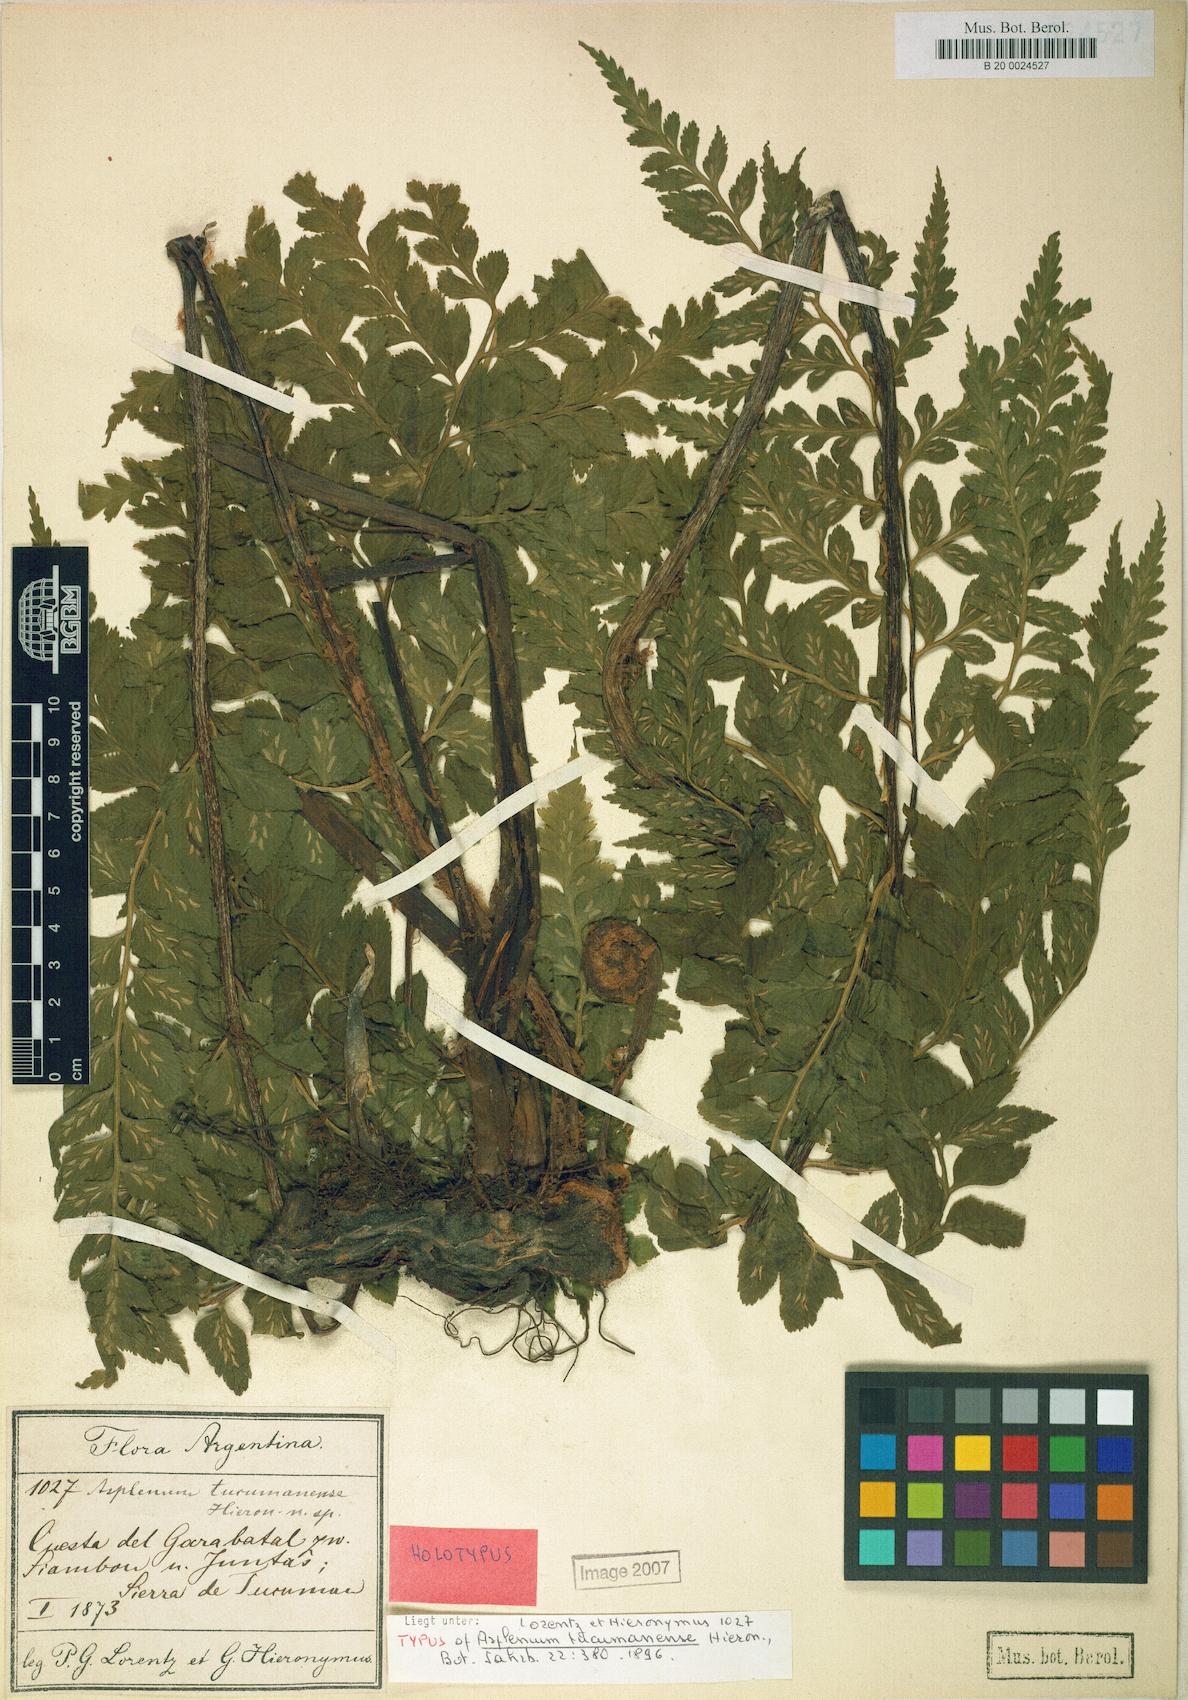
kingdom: Plantae
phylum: Tracheophyta
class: Polypodiopsida
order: Polypodiales
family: Aspleniaceae
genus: Asplenium
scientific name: Asplenium squamosum
